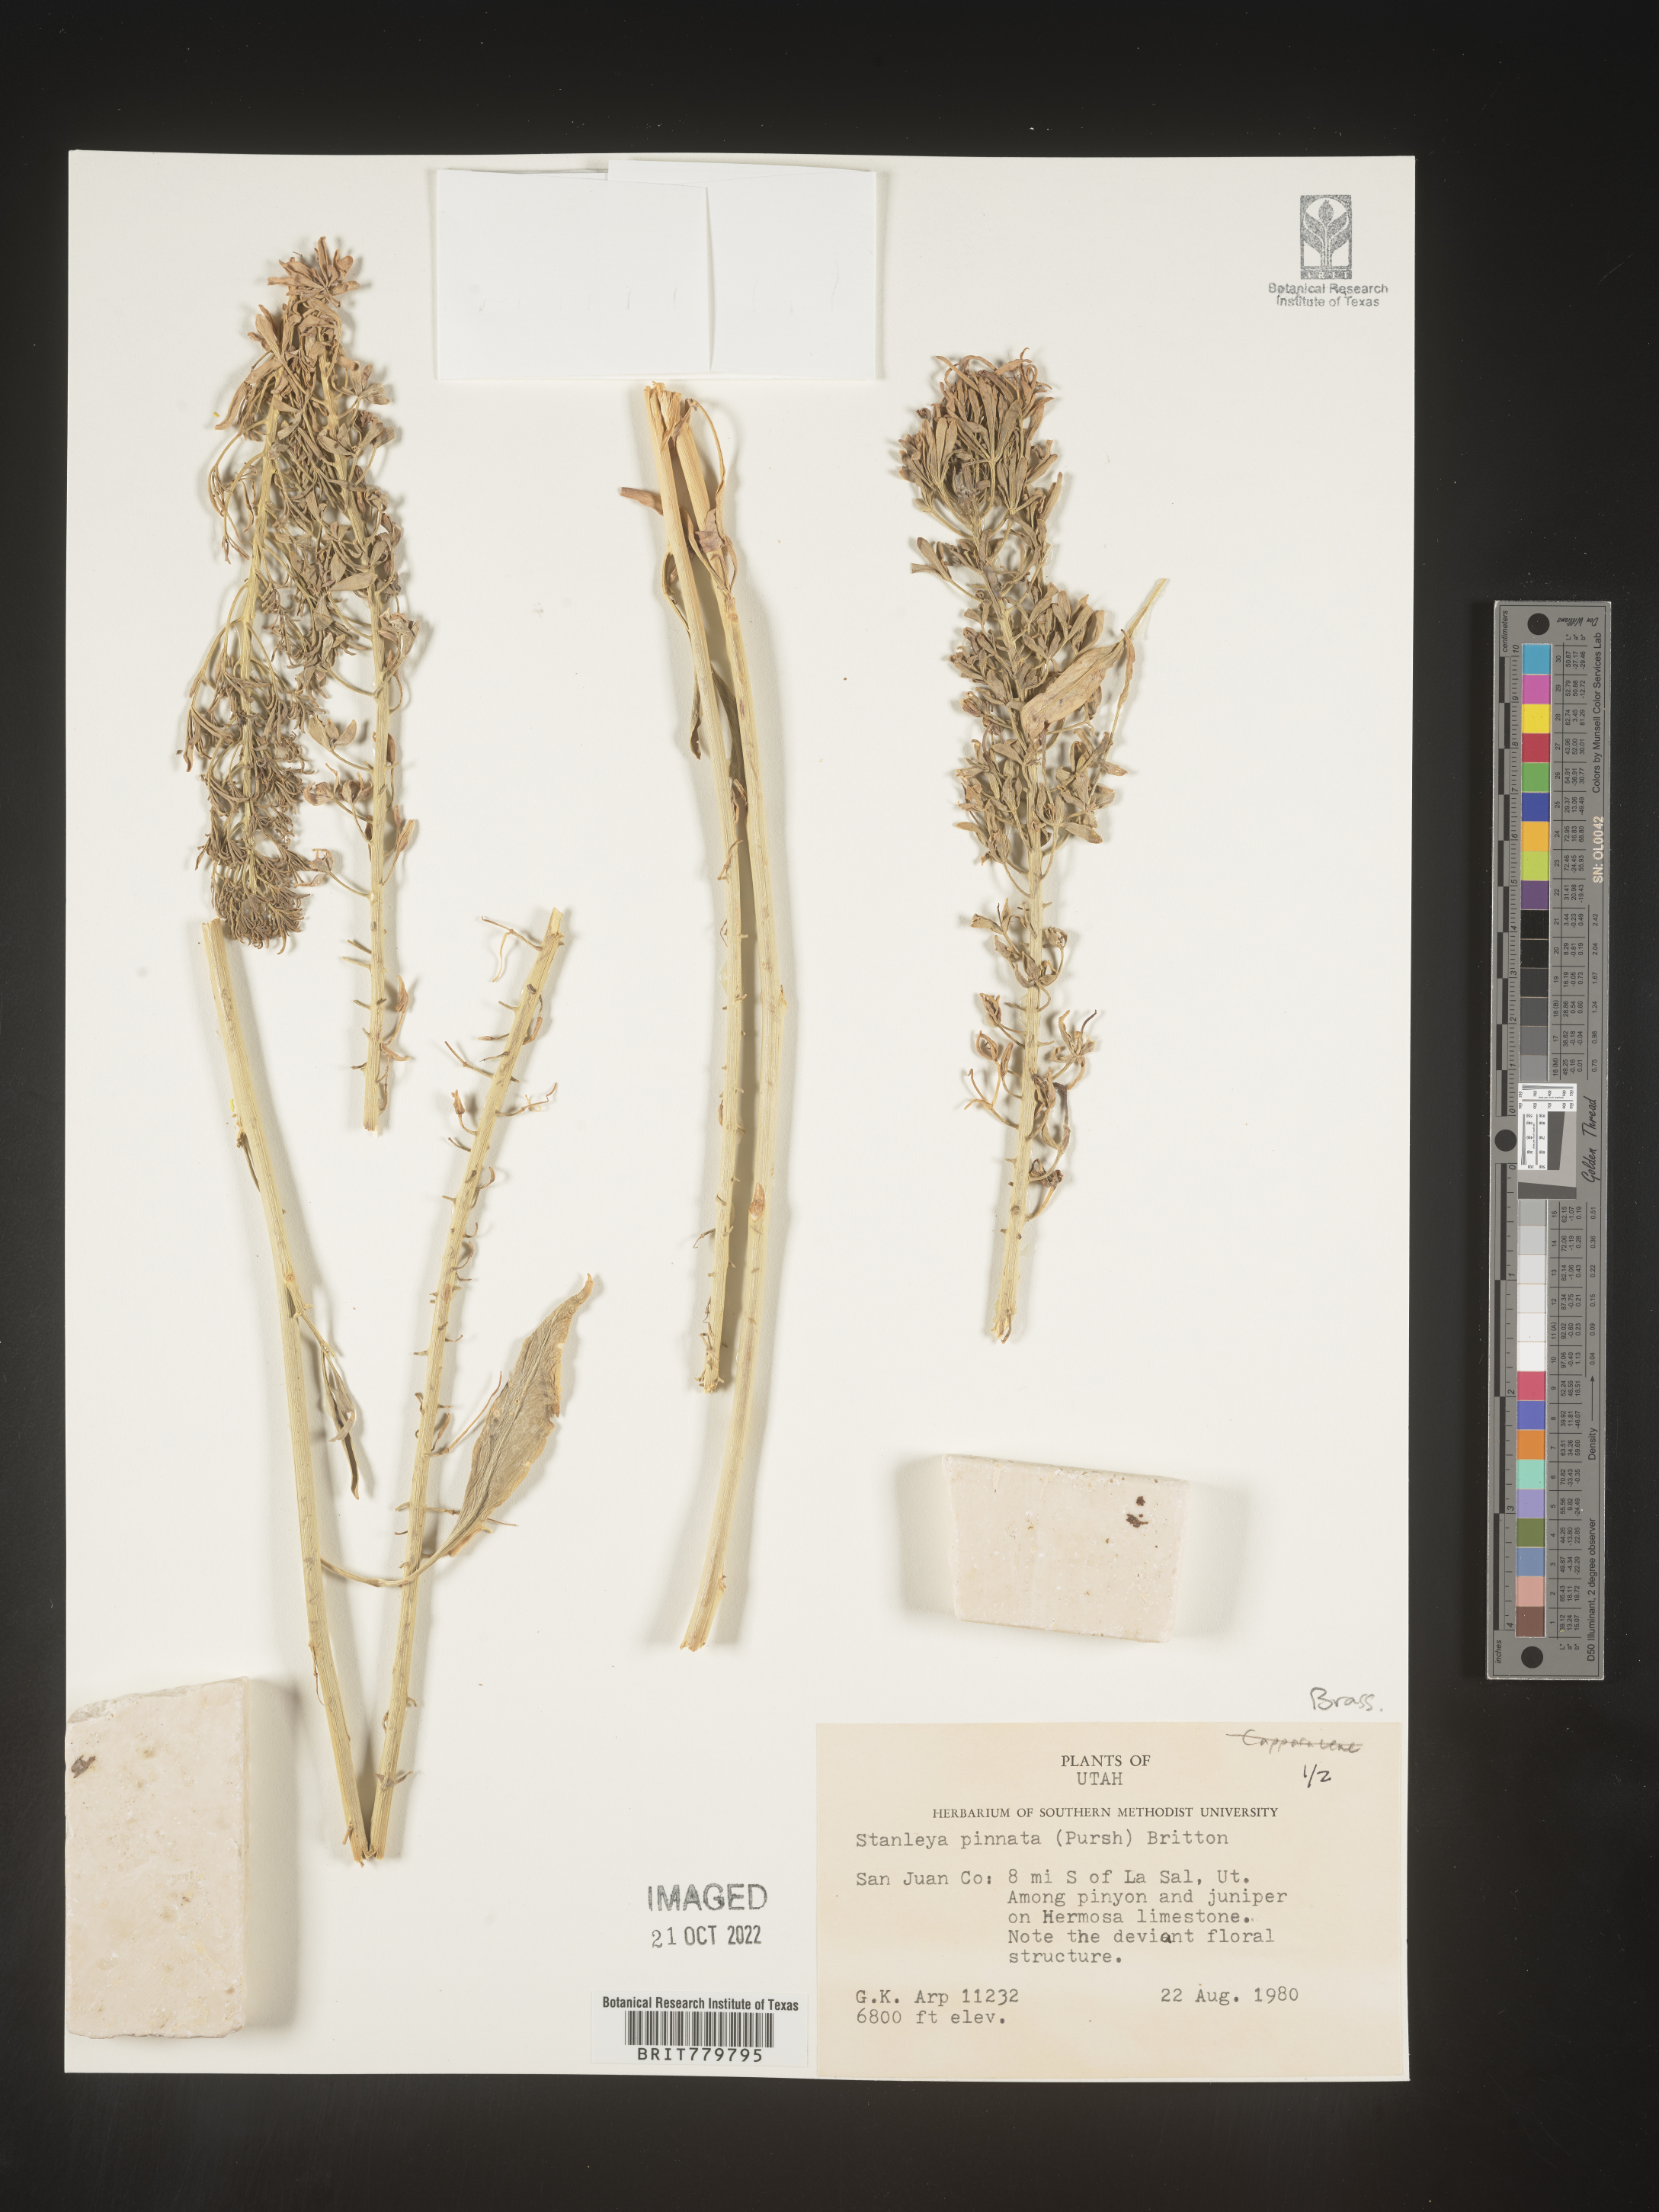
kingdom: Plantae
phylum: Tracheophyta
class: Magnoliopsida
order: Brassicales
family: Brassicaceae
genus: Stanleya
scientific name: Stanleya pinnata
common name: Prince's-plume
